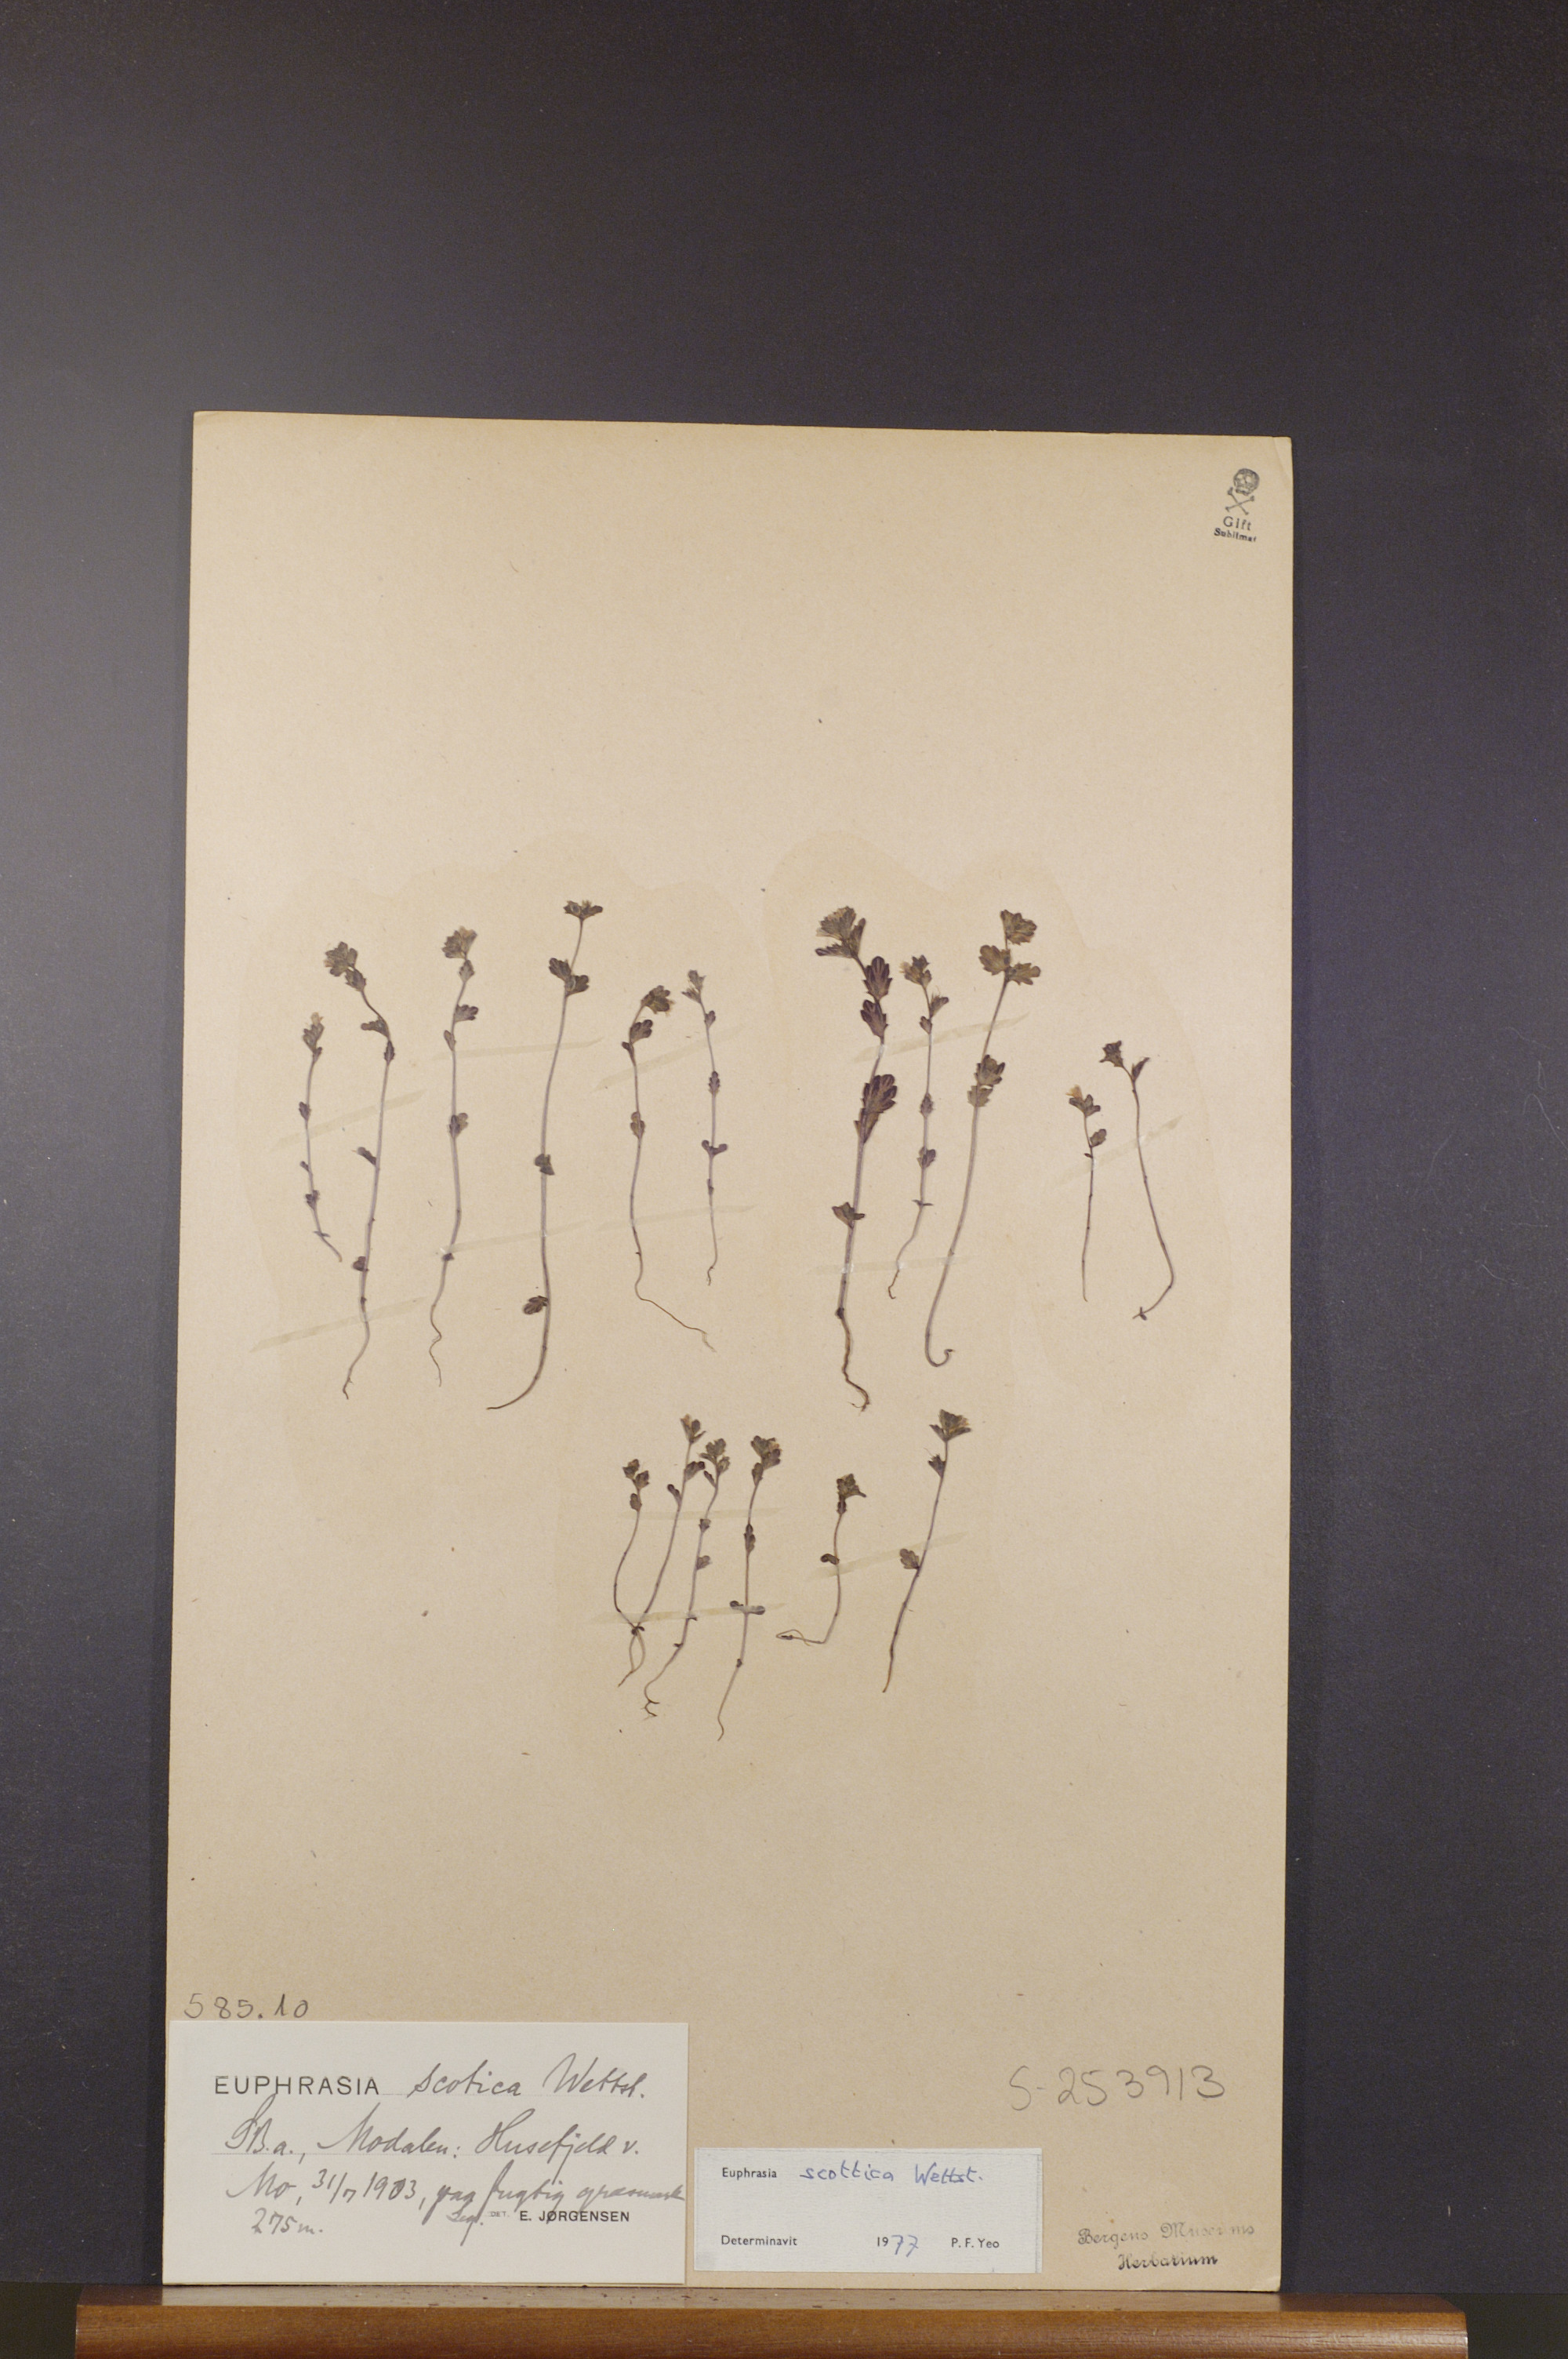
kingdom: Plantae
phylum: Tracheophyta
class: Magnoliopsida
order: Lamiales
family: Orobanchaceae
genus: Euphrasia
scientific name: Euphrasia scottica
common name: Slender scottish eyebright
